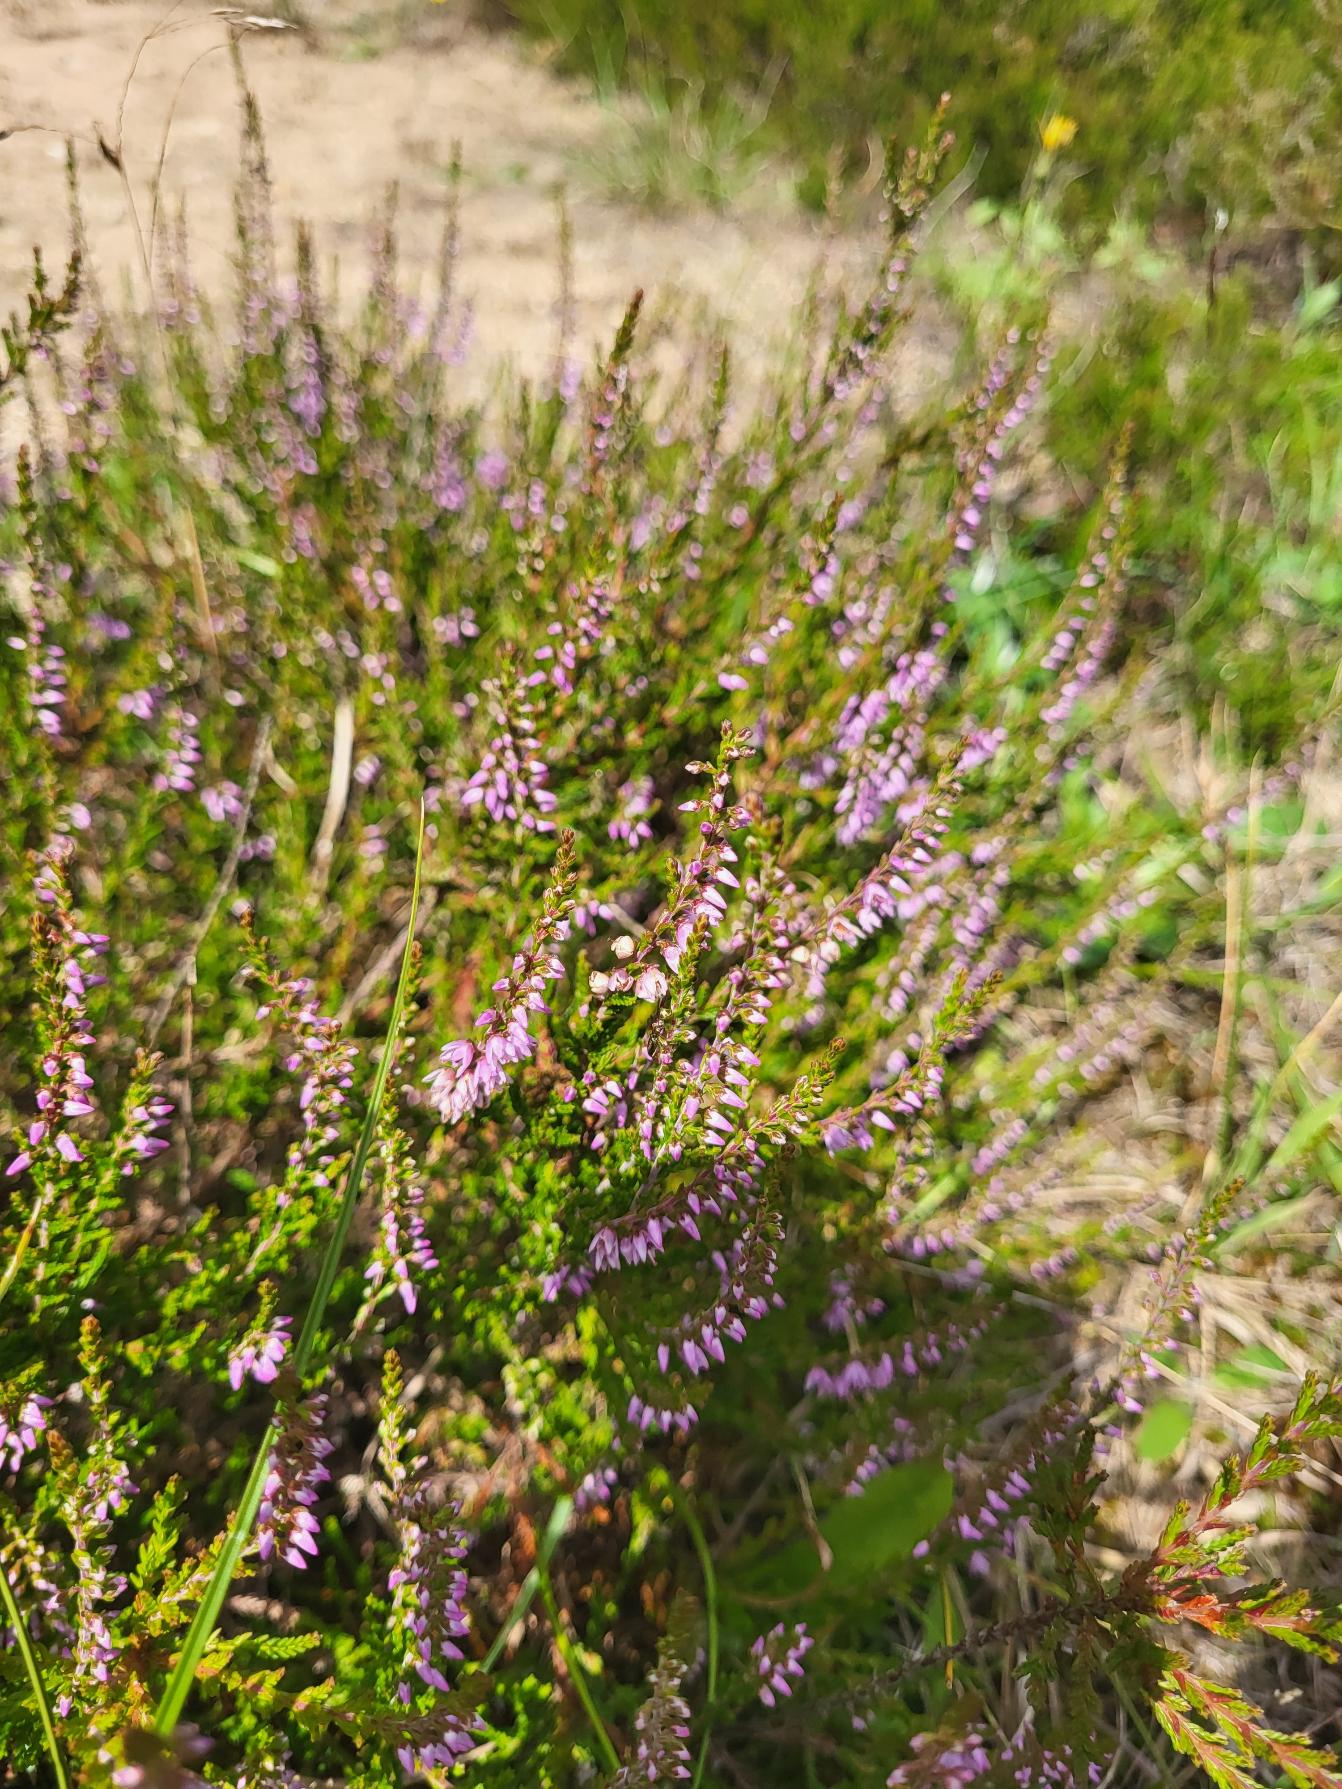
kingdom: Plantae
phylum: Tracheophyta
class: Magnoliopsida
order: Ericales
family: Ericaceae
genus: Calluna
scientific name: Calluna vulgaris
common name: Hedelyng
